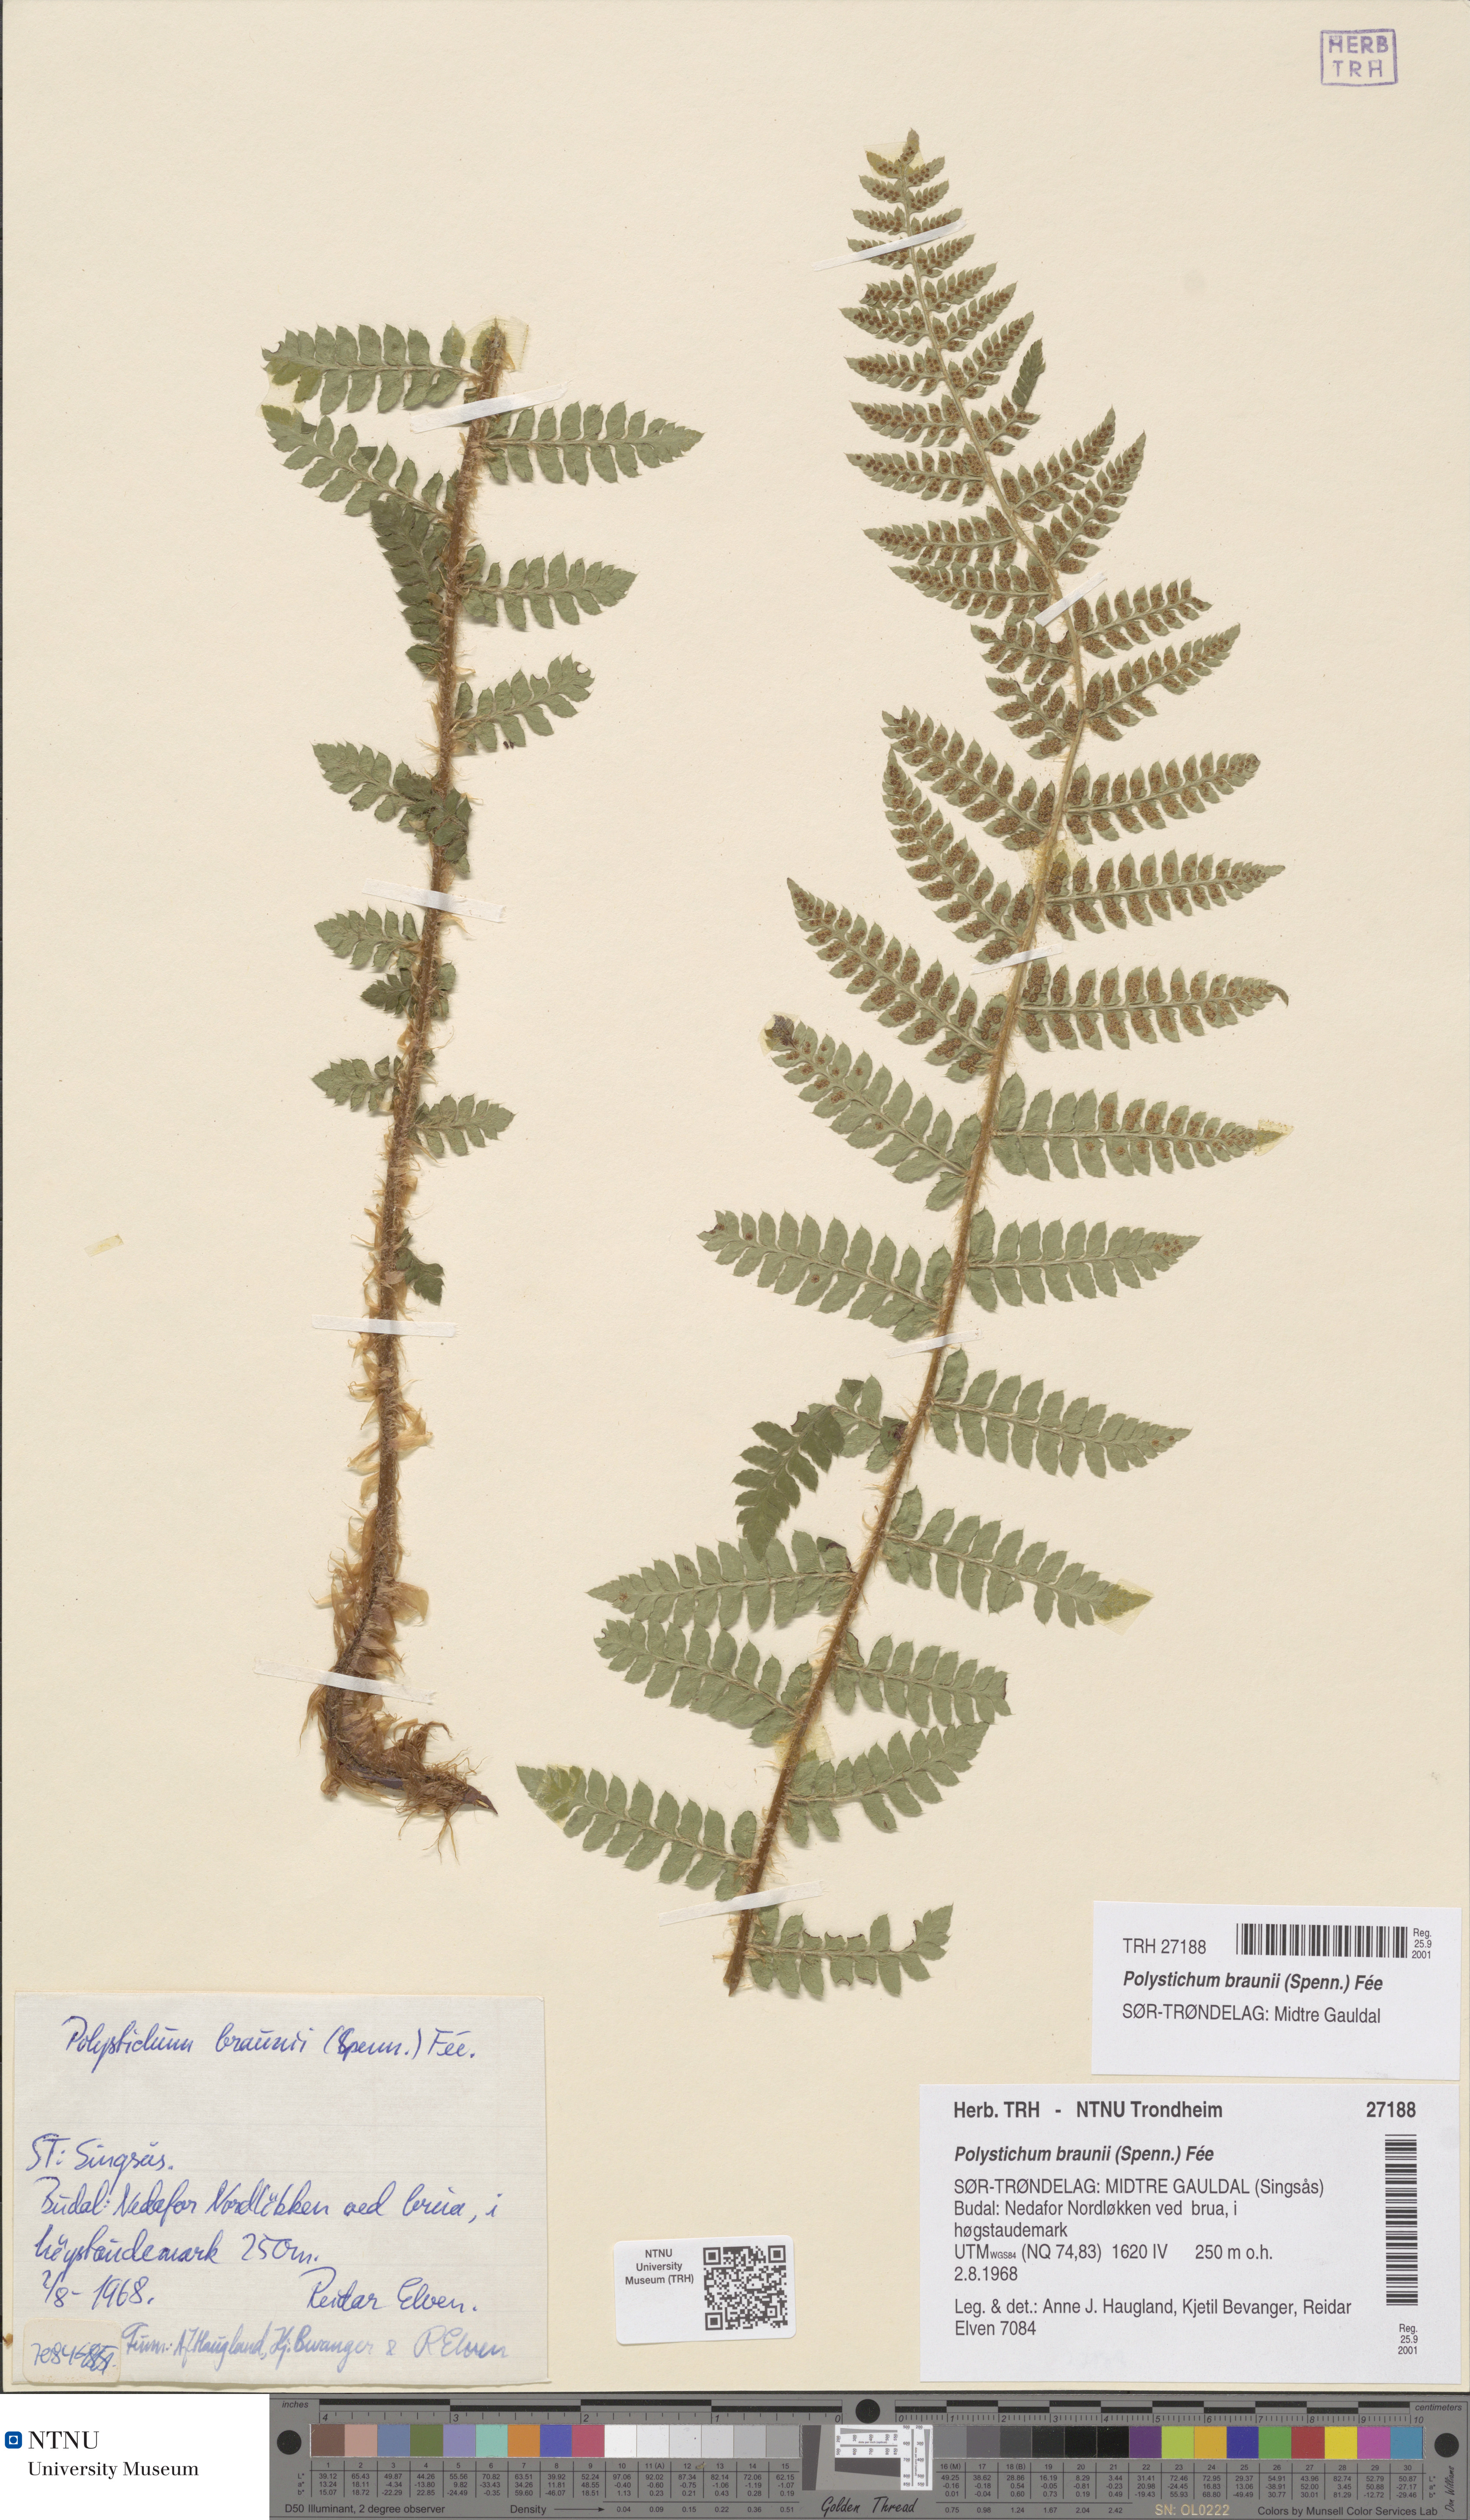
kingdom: Plantae
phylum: Tracheophyta
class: Polypodiopsida
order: Polypodiales
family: Dryopteridaceae
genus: Polystichum
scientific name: Polystichum braunii
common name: Braun's holly fern
